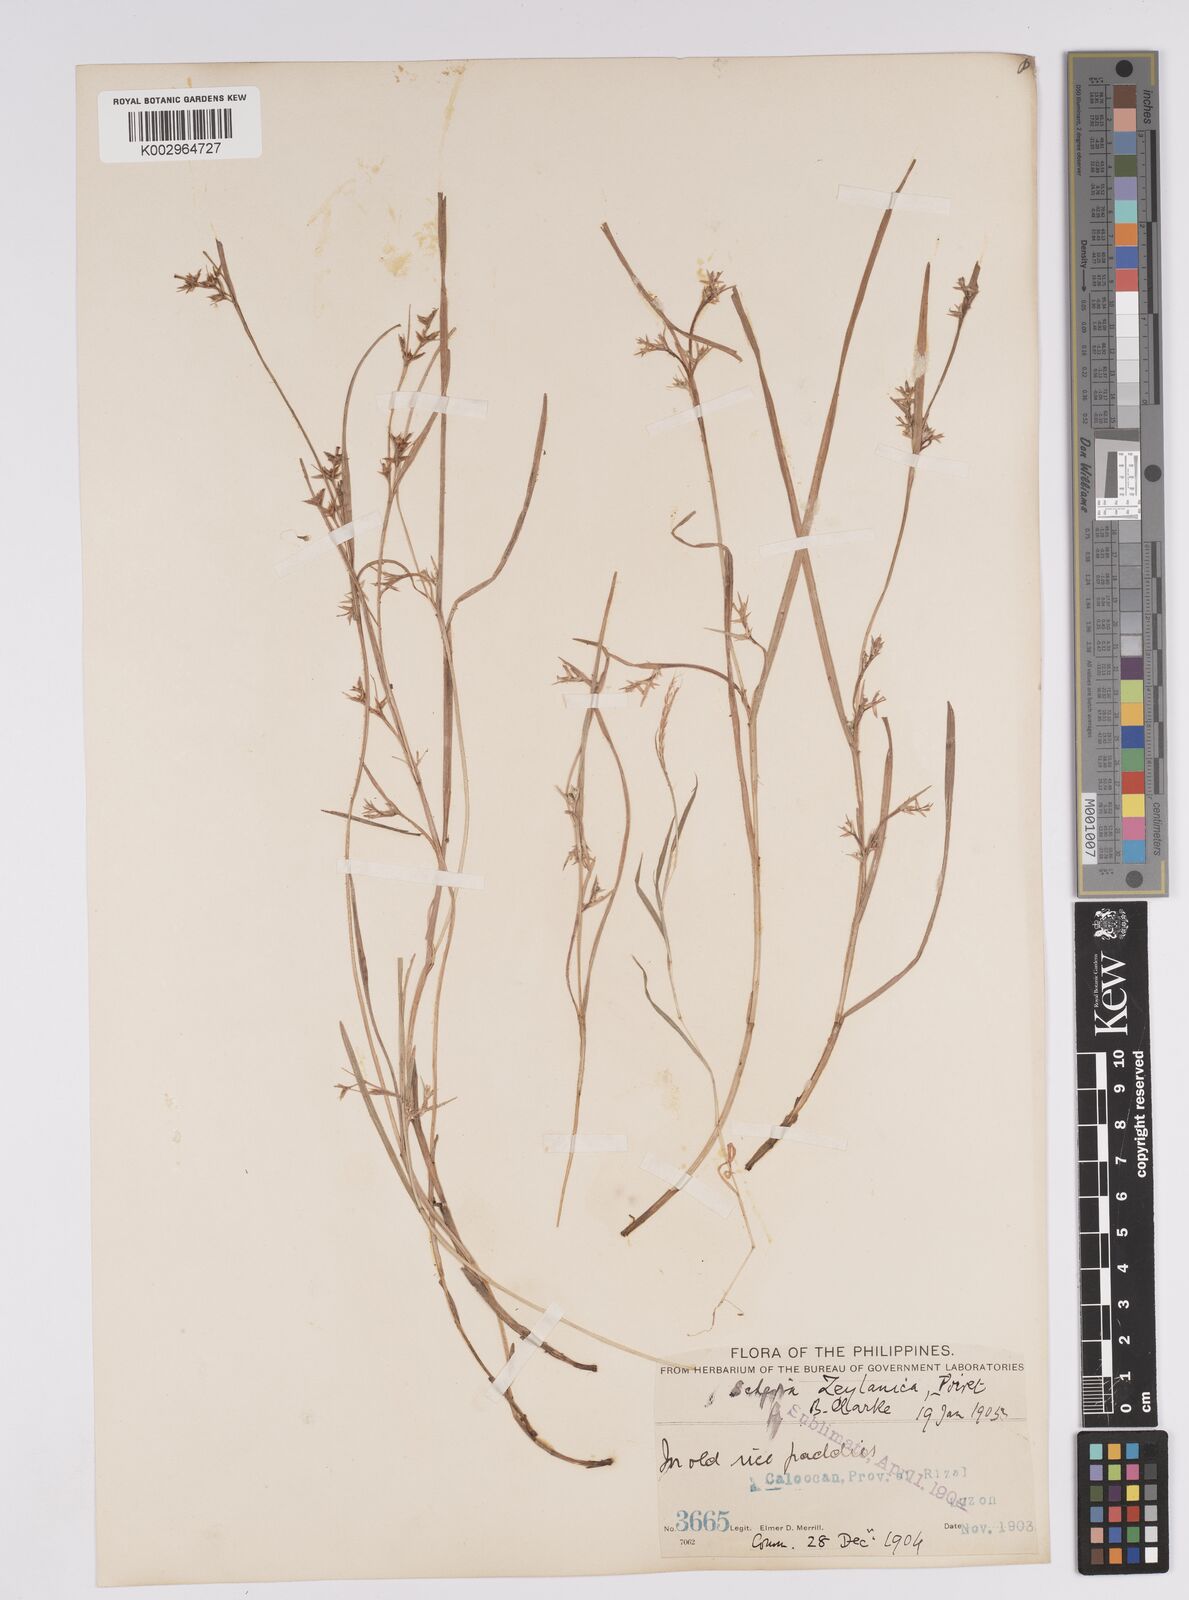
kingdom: Plantae
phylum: Tracheophyta
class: Liliopsida
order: Poales
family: Cyperaceae
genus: Scleria
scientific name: Scleria levis
